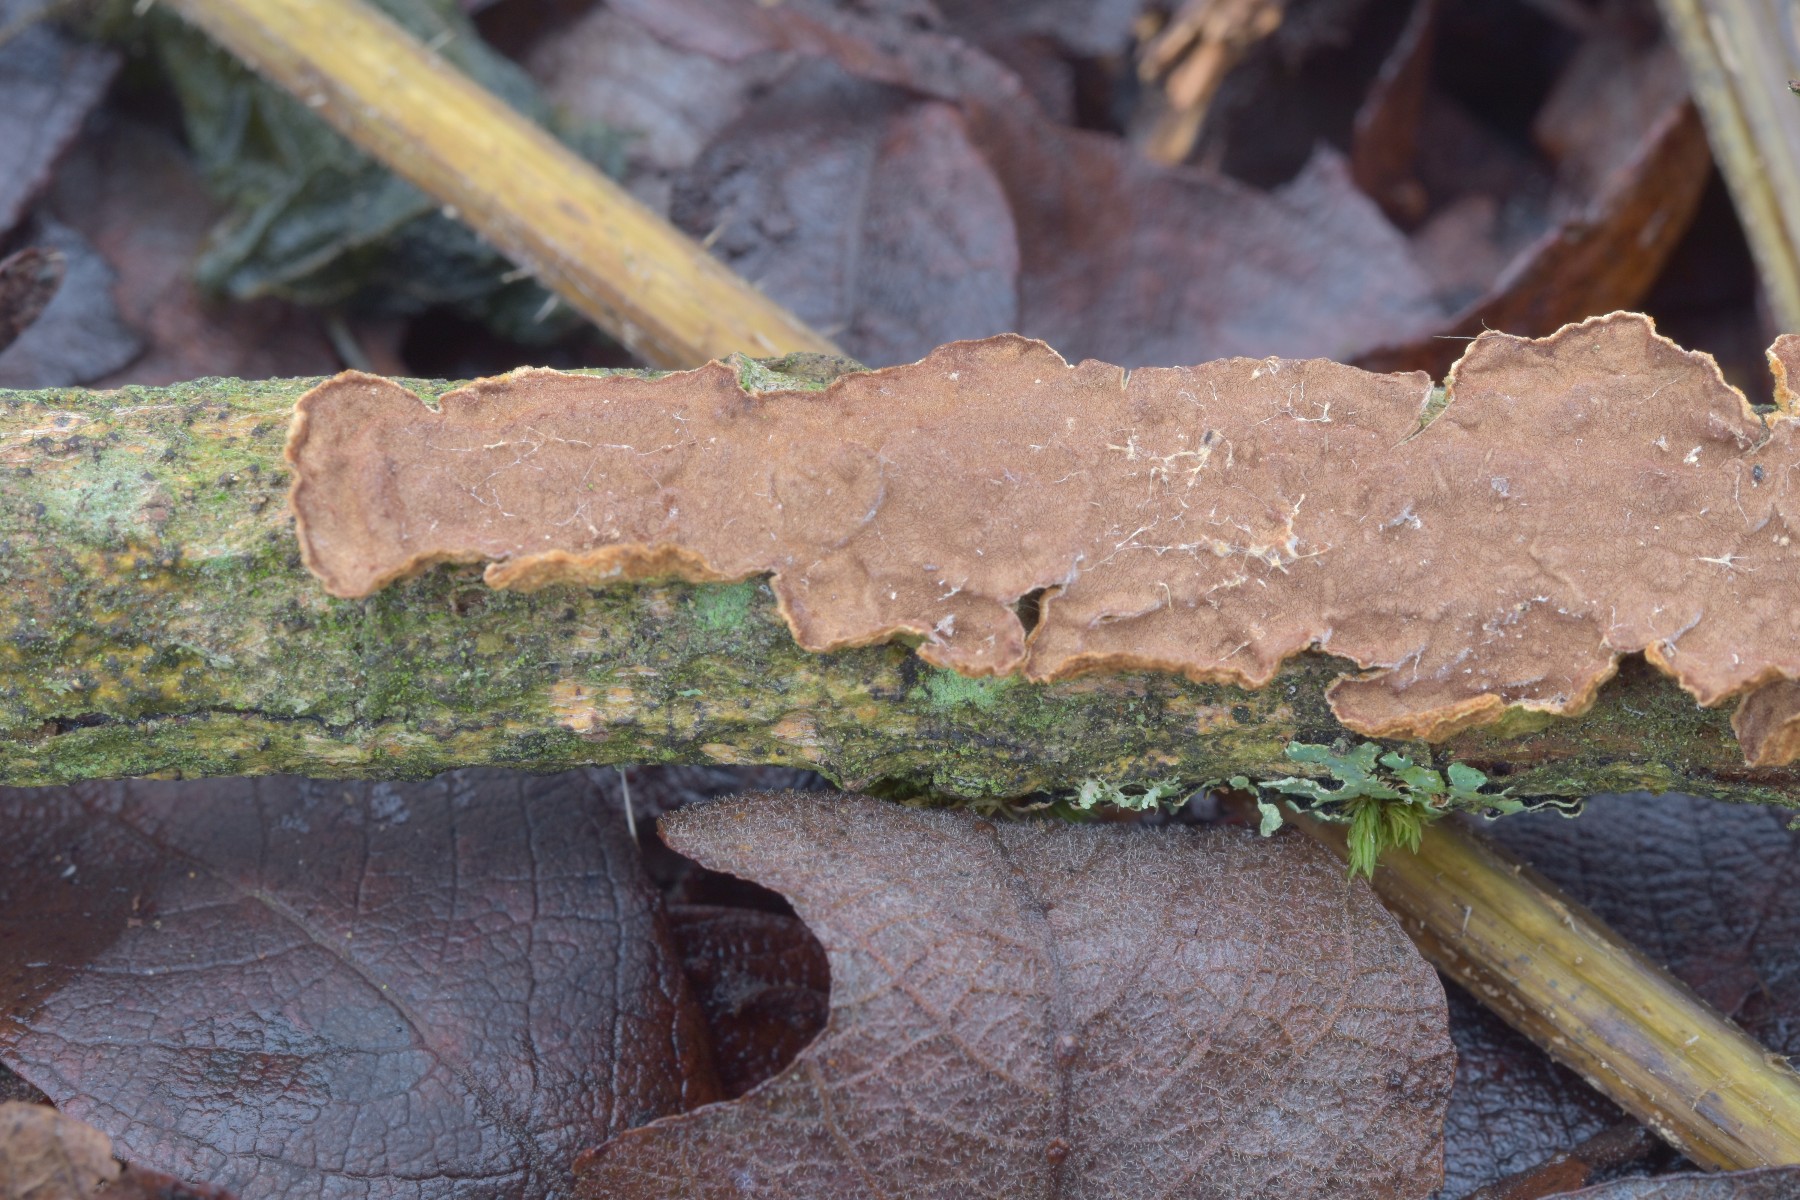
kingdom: Fungi
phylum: Basidiomycota
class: Agaricomycetes
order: Hymenochaetales
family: Hymenochaetaceae
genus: Hydnoporia
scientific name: Hydnoporia tabacina
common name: tobaksbrun ruslædersvamp
